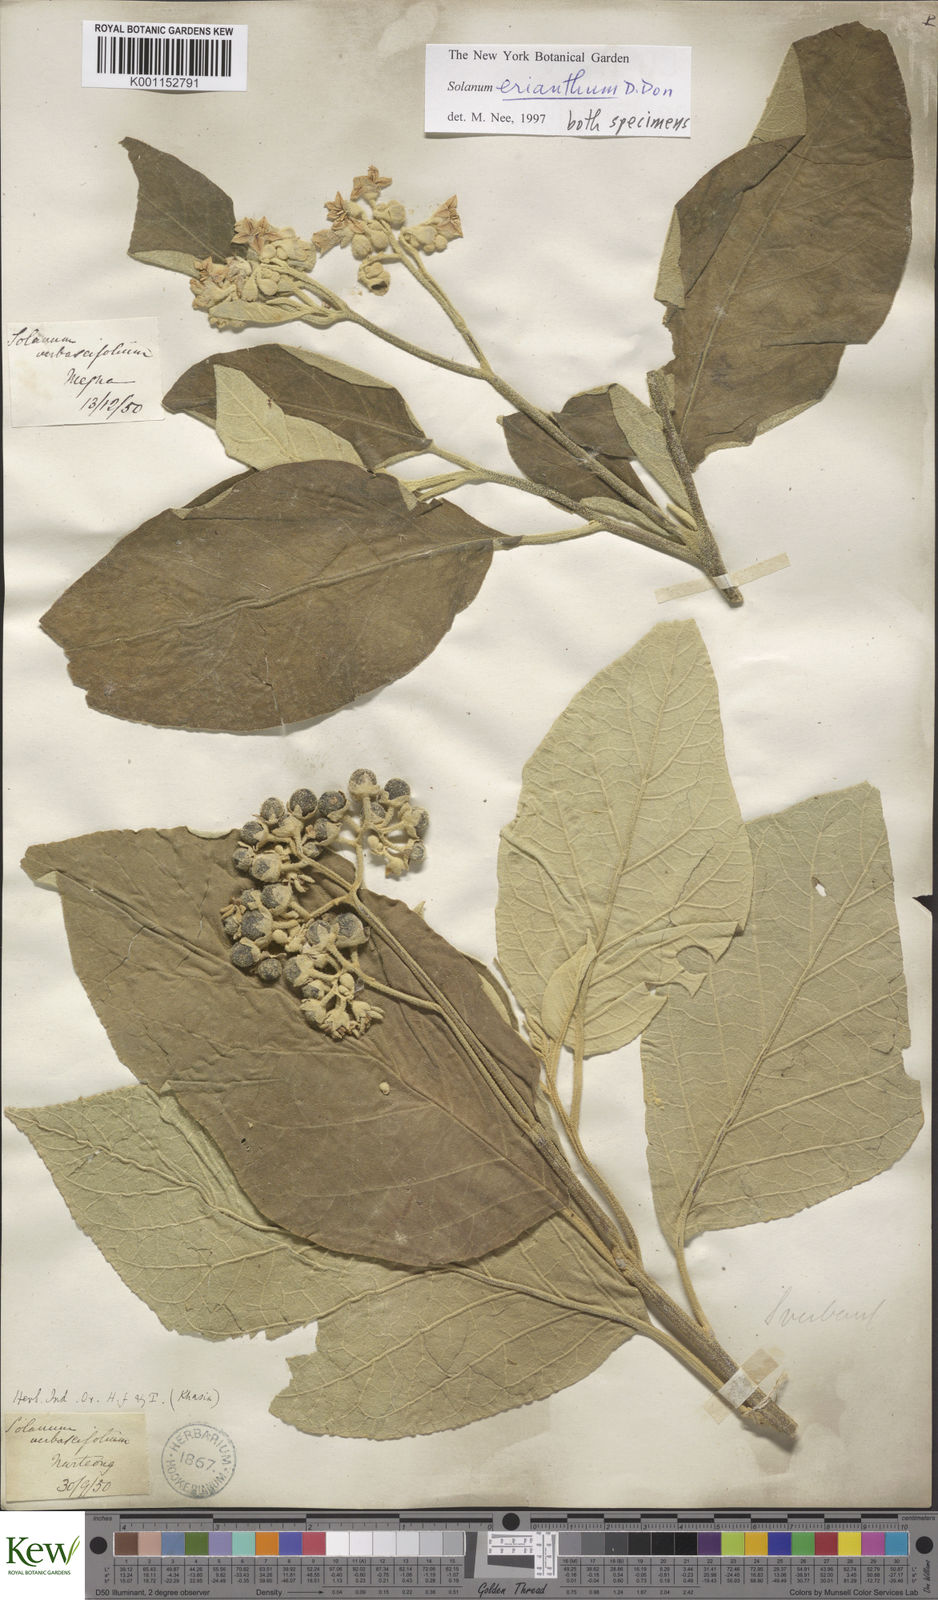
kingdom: Plantae
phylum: Tracheophyta
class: Magnoliopsida
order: Solanales
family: Solanaceae
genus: Solanum
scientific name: Solanum erianthum
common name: Tobacco-tree
